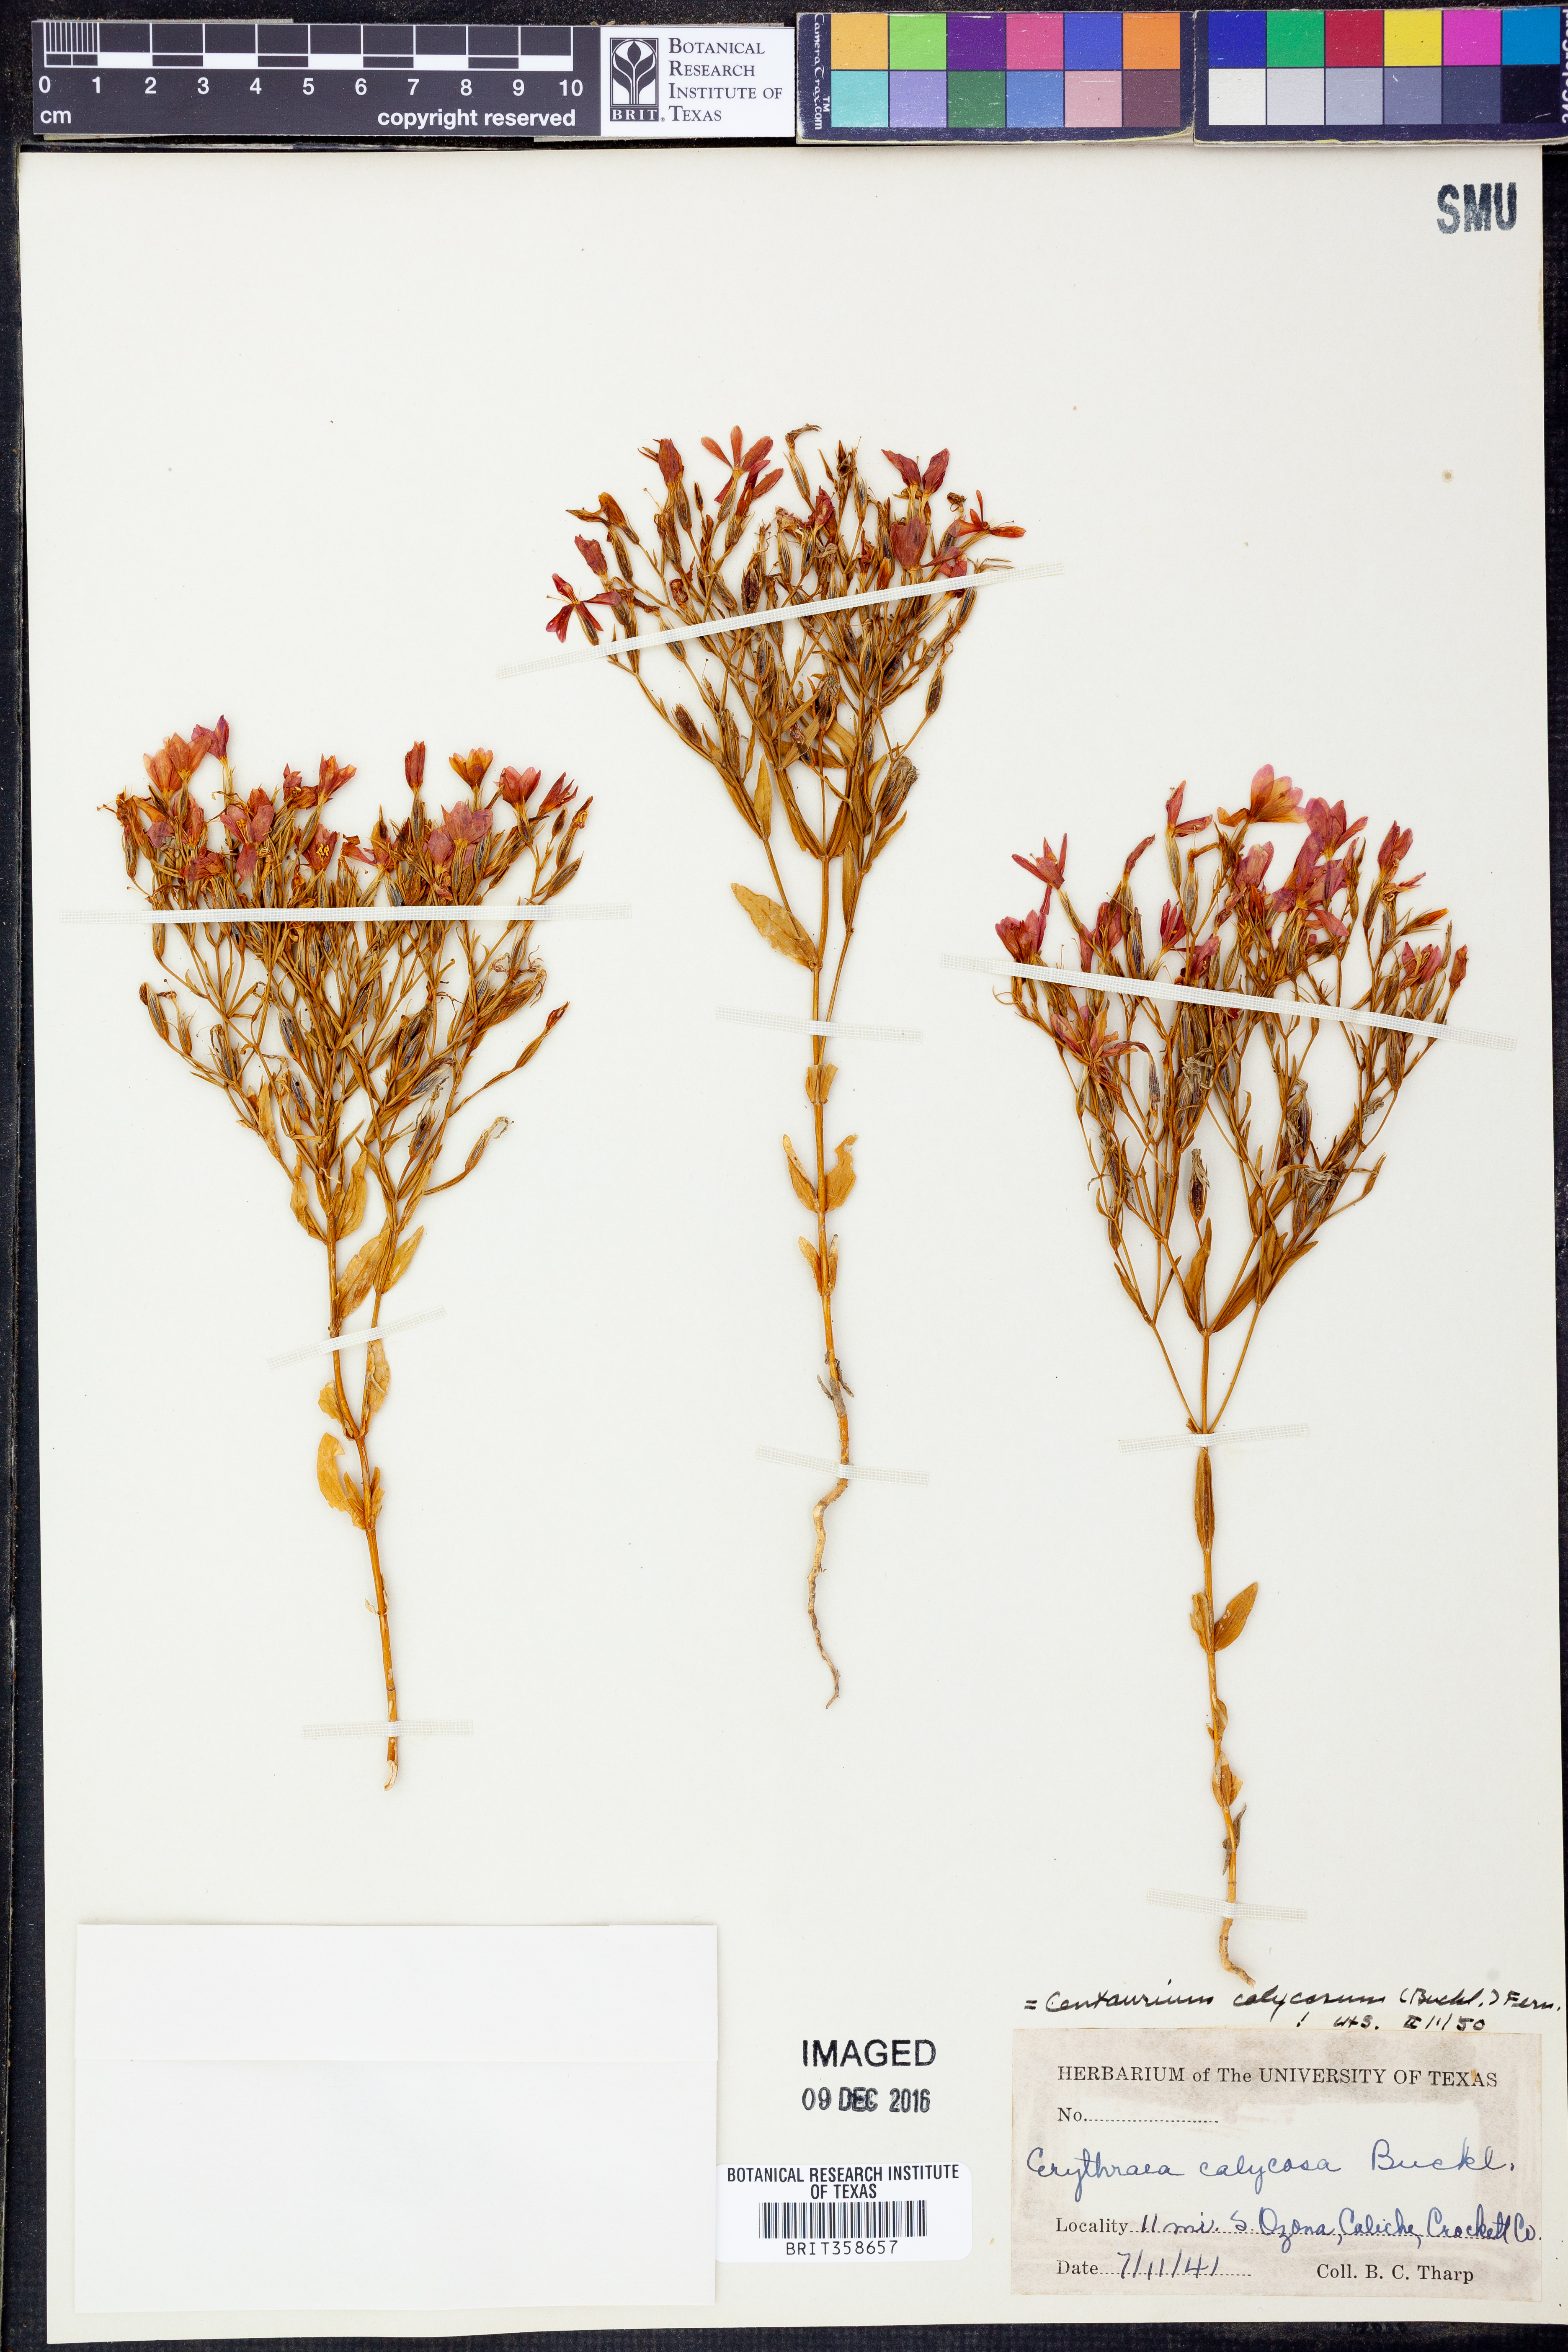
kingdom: Plantae
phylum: Tracheophyta
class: Magnoliopsida
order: Gentianales
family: Gentianaceae
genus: Zeltnera
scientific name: Zeltnera calycosa
